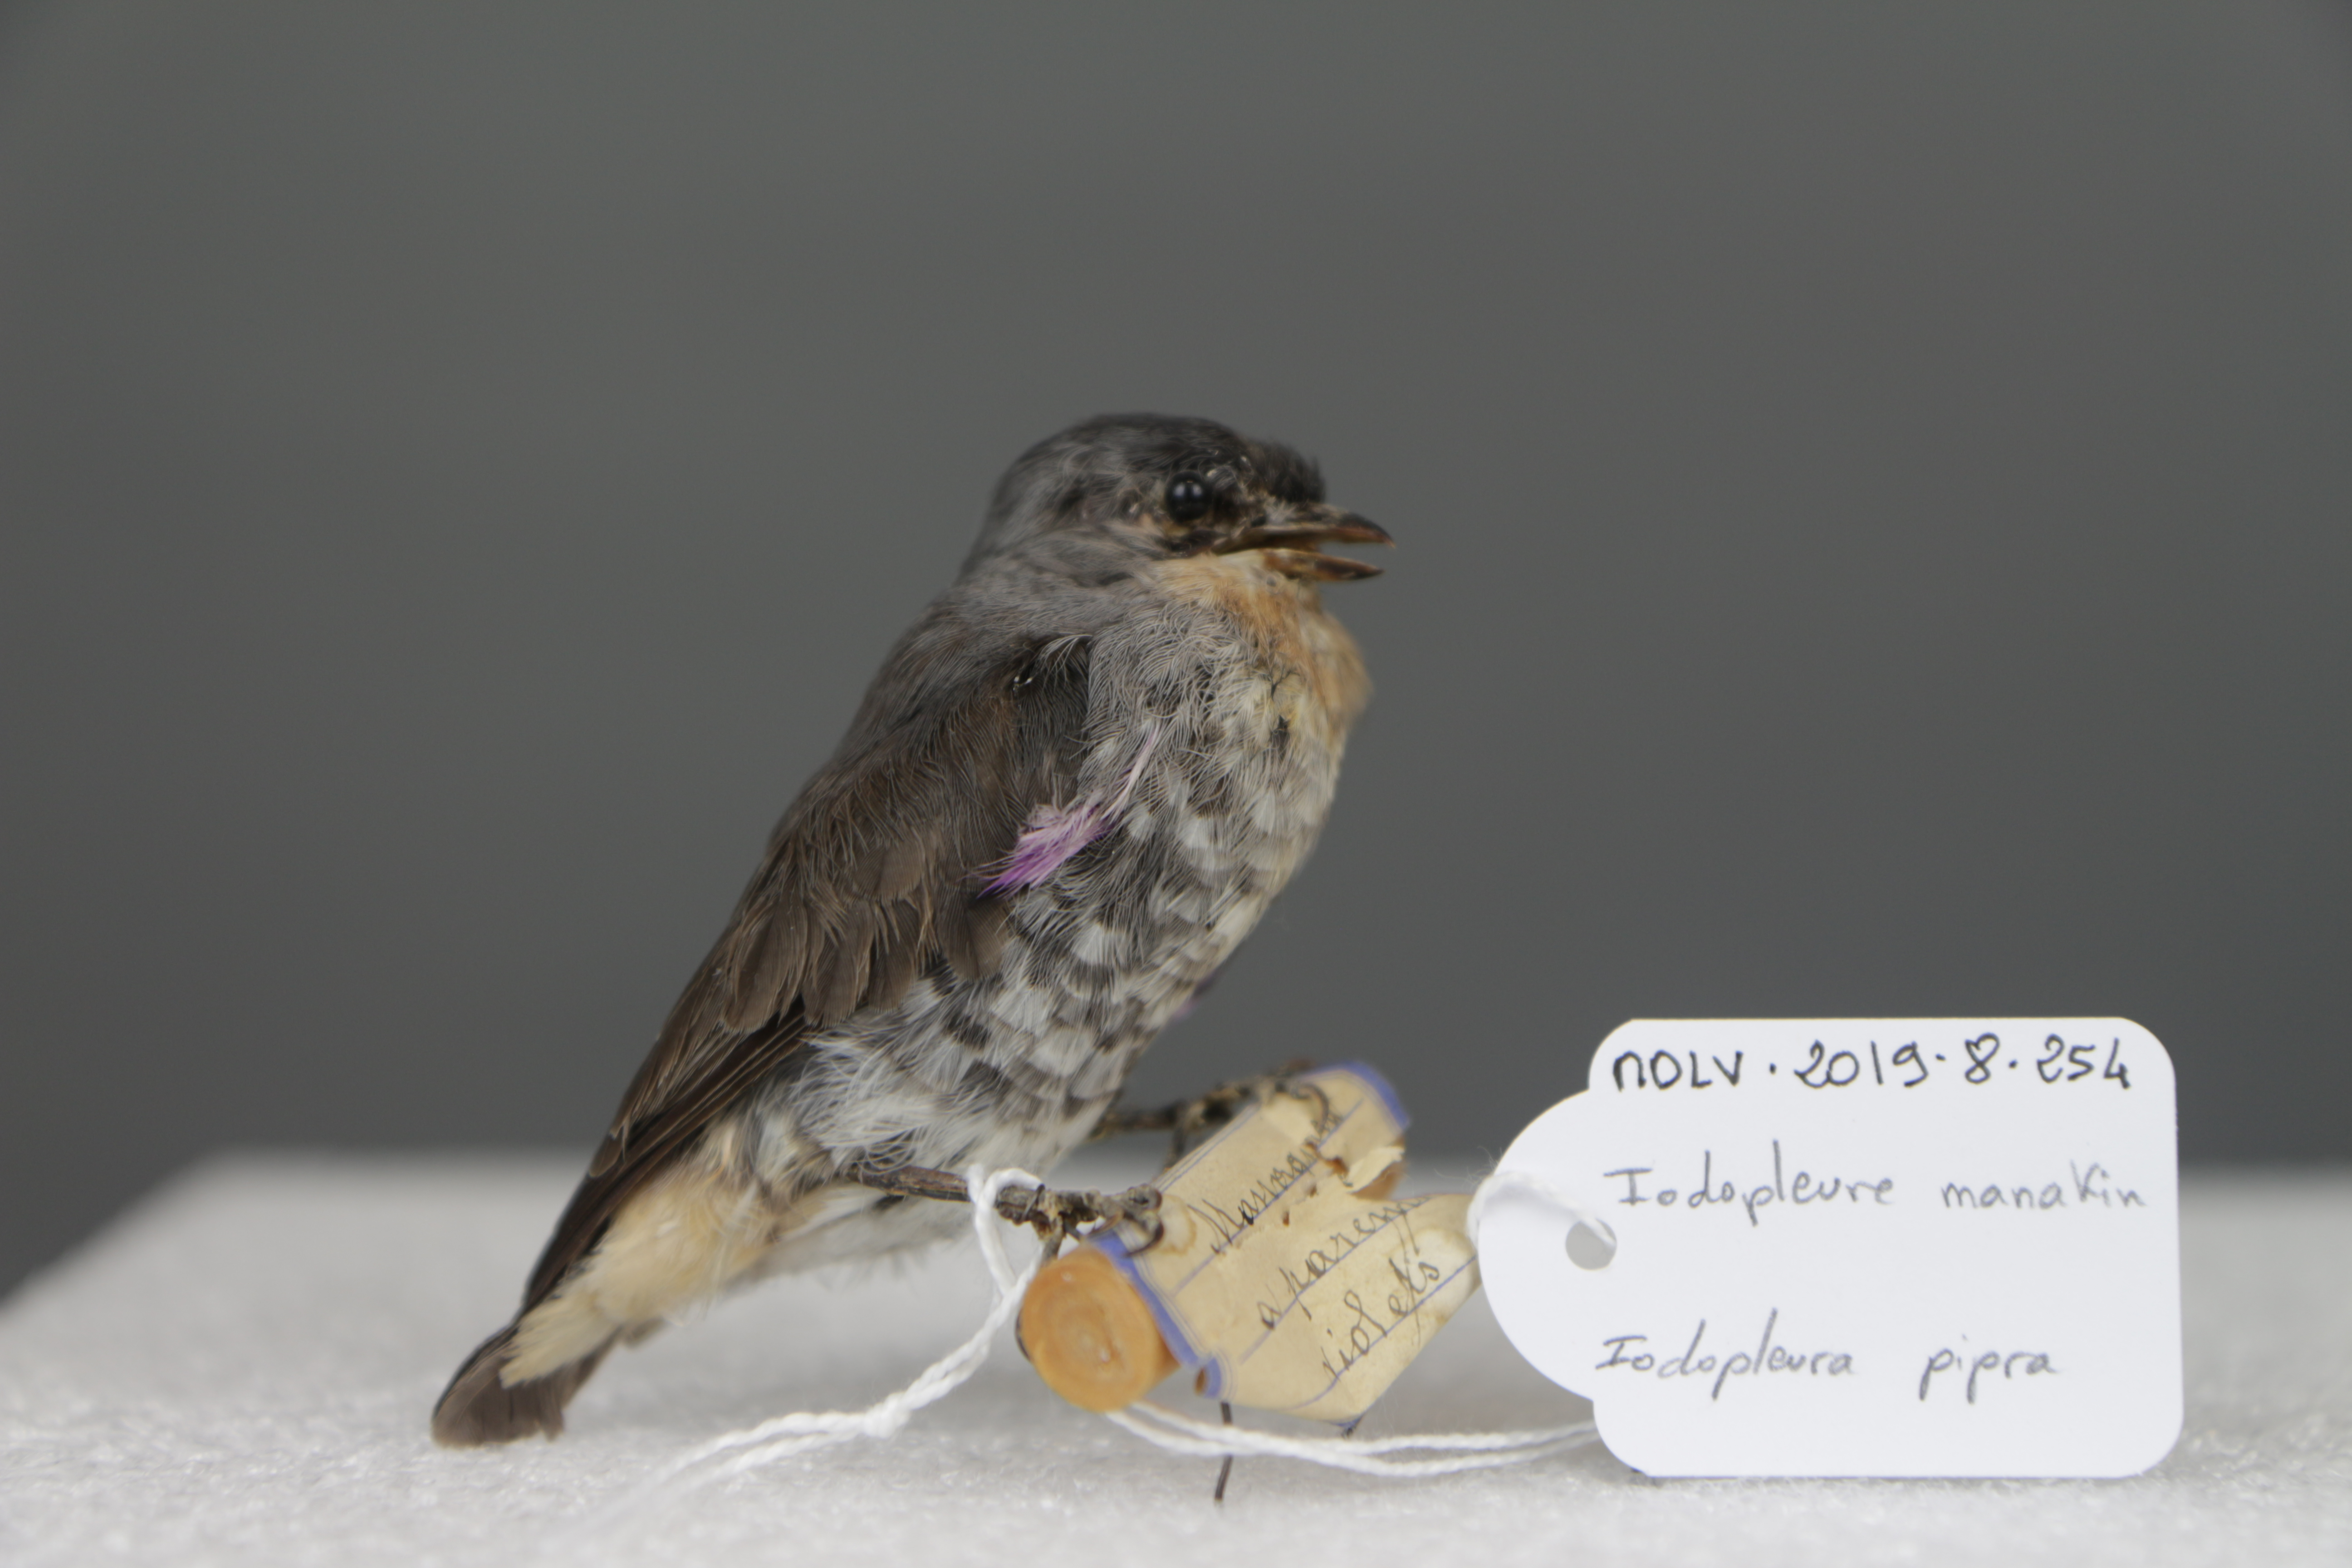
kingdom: Animalia
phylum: Chordata
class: Aves
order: Passeriformes
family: Cotingidae
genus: Iodopleura
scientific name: Iodopleura pipra
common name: Buff-throated purpletuft
